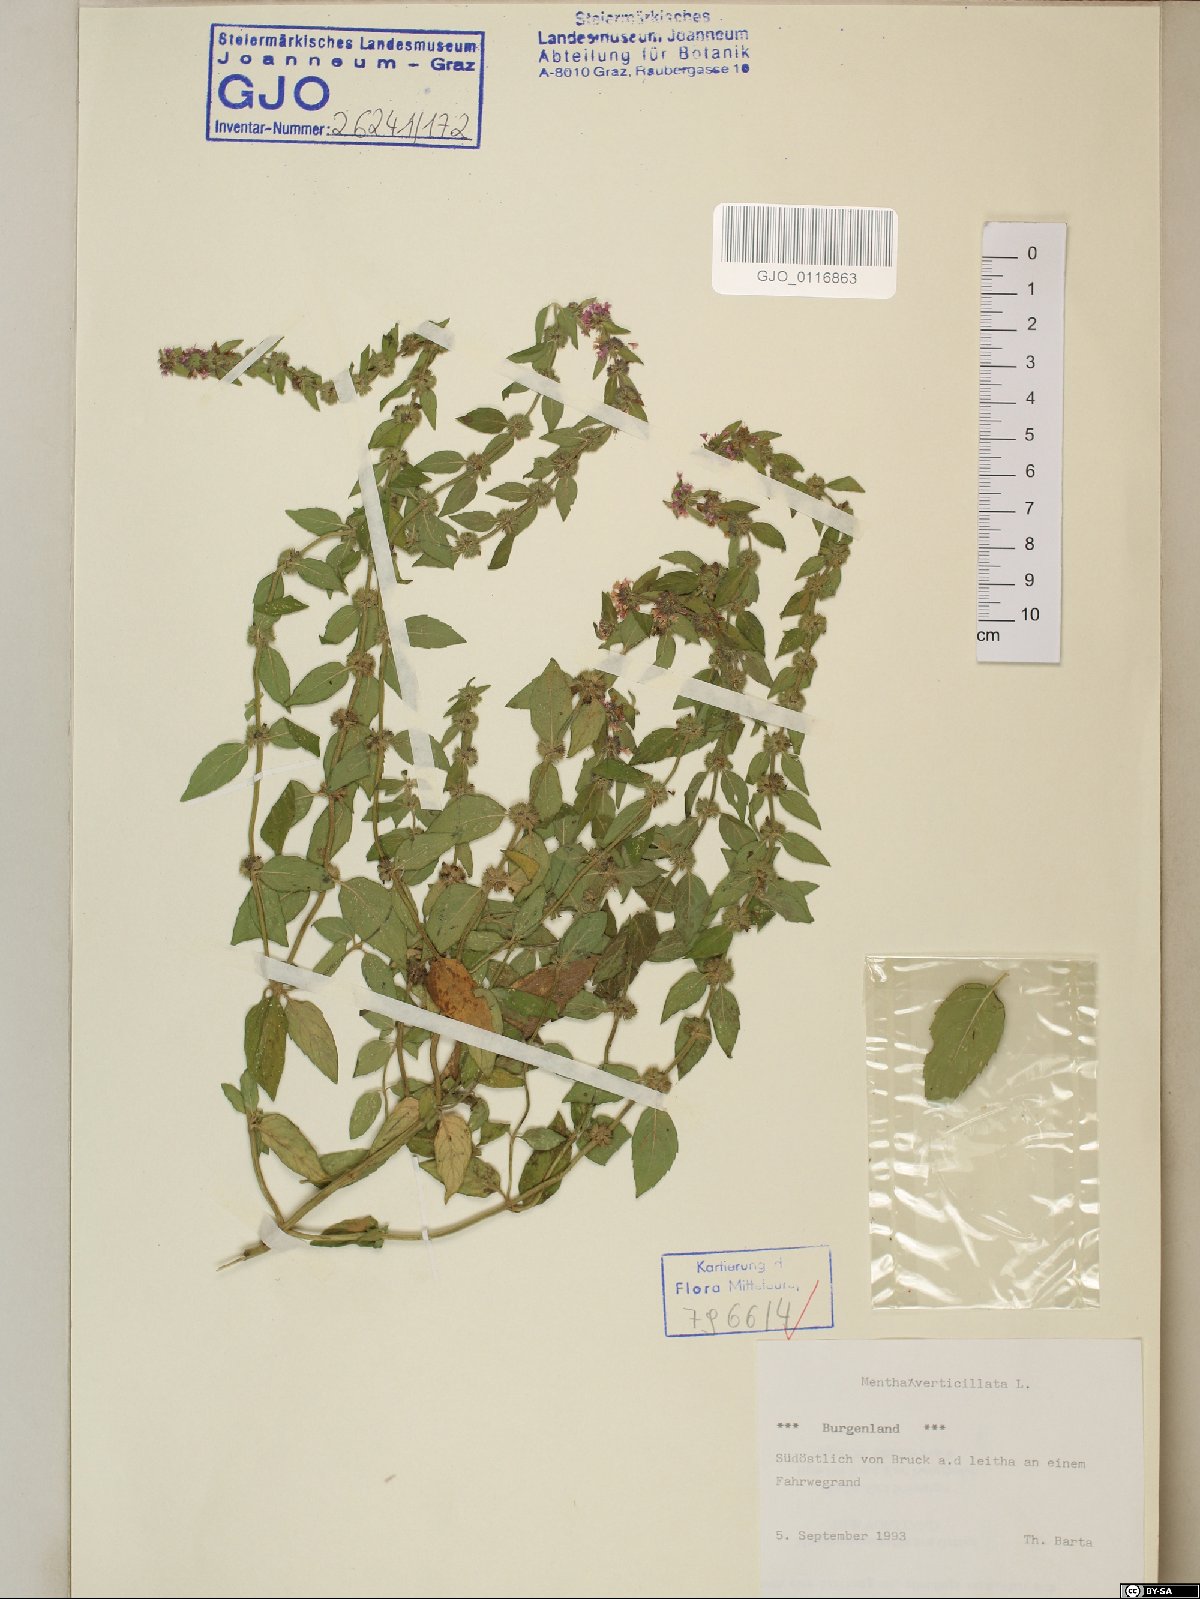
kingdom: Plantae
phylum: Tracheophyta
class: Magnoliopsida
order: Lamiales
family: Lamiaceae
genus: Mentha
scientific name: Mentha verticillata
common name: Mint
